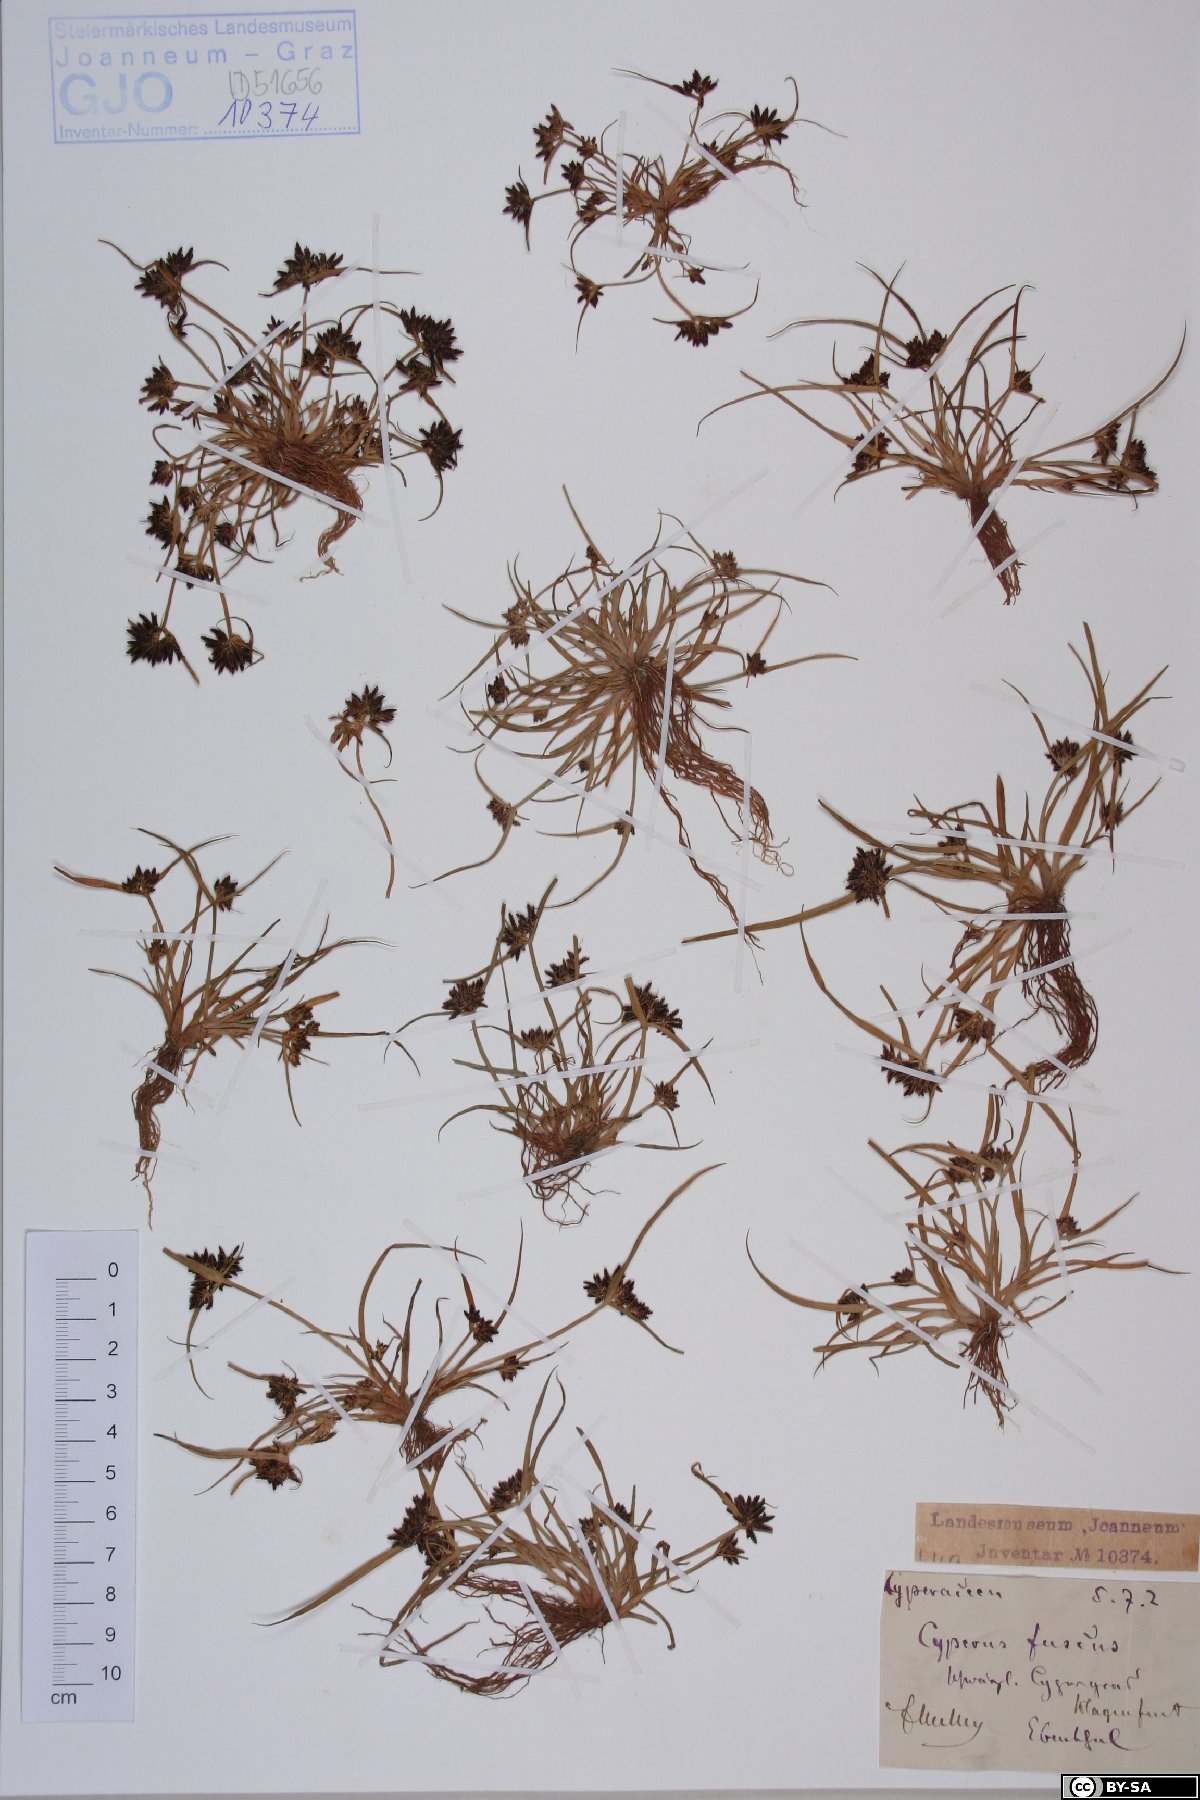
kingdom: Plantae
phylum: Tracheophyta
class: Liliopsida
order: Poales
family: Cyperaceae
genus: Cyperus
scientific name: Cyperus fuscus
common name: Brown galingale
